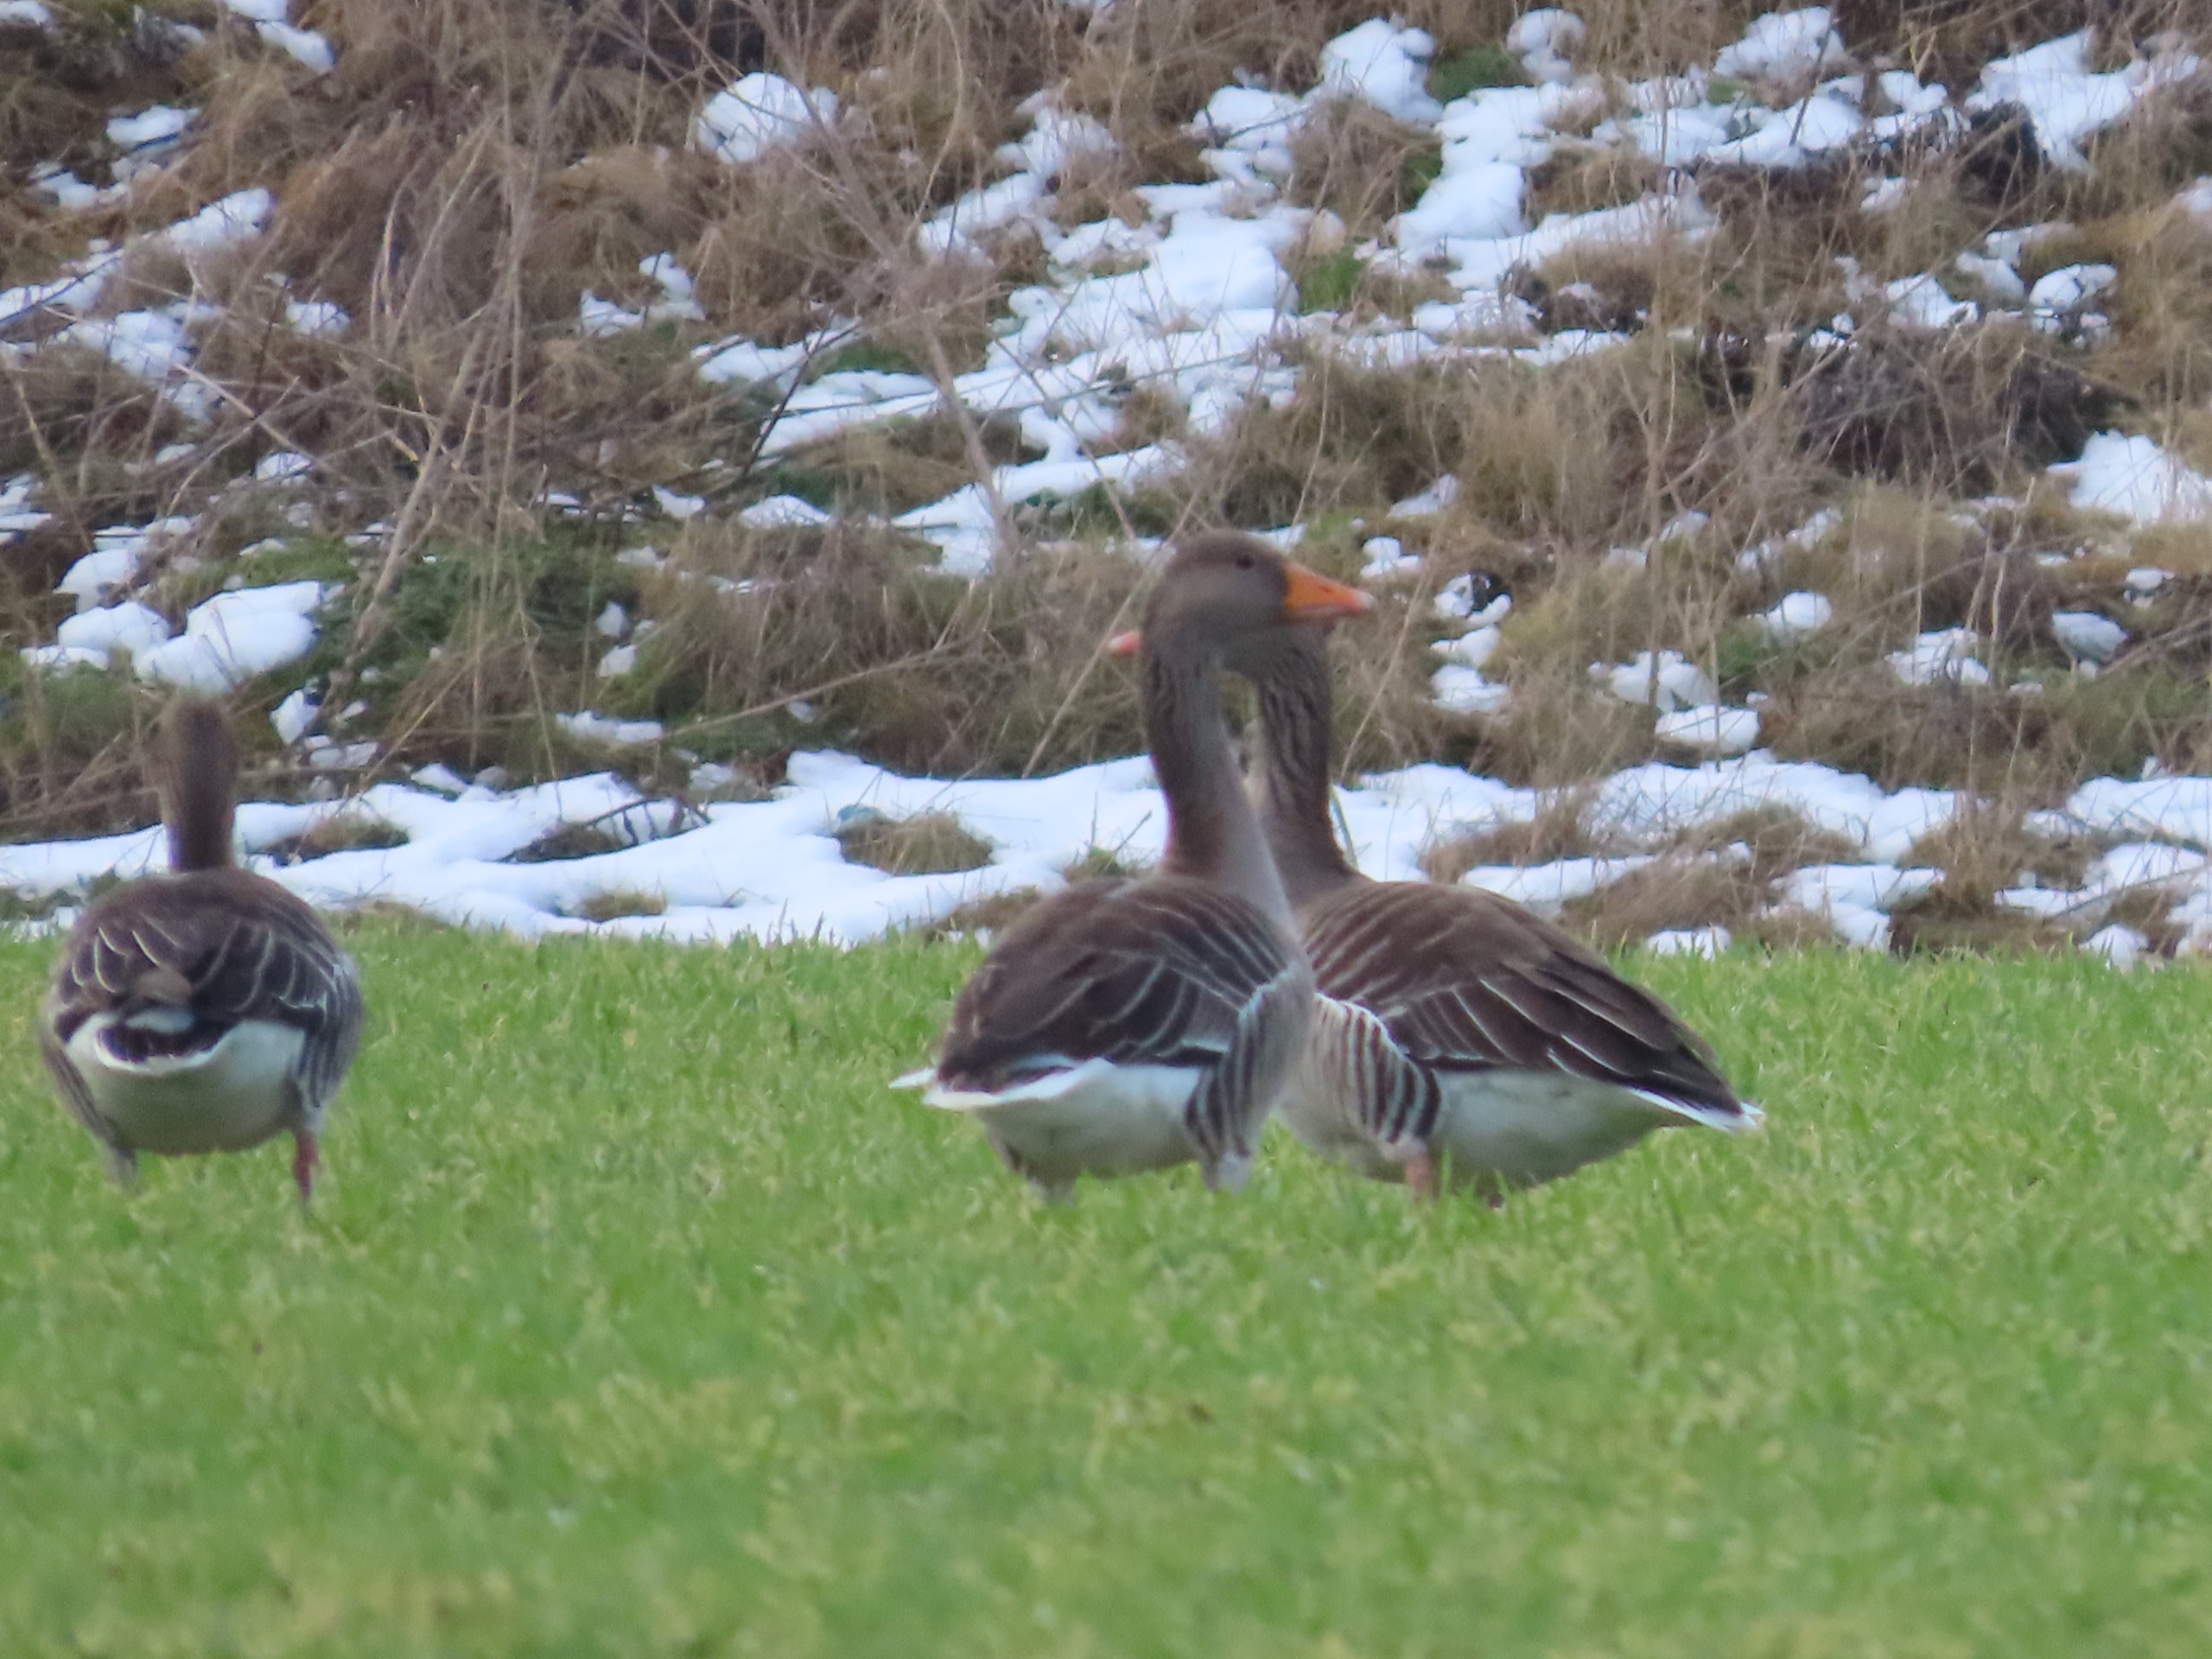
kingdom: Animalia
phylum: Chordata
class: Aves
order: Anseriformes
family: Anatidae
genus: Anser
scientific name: Anser anser
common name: Grågås
